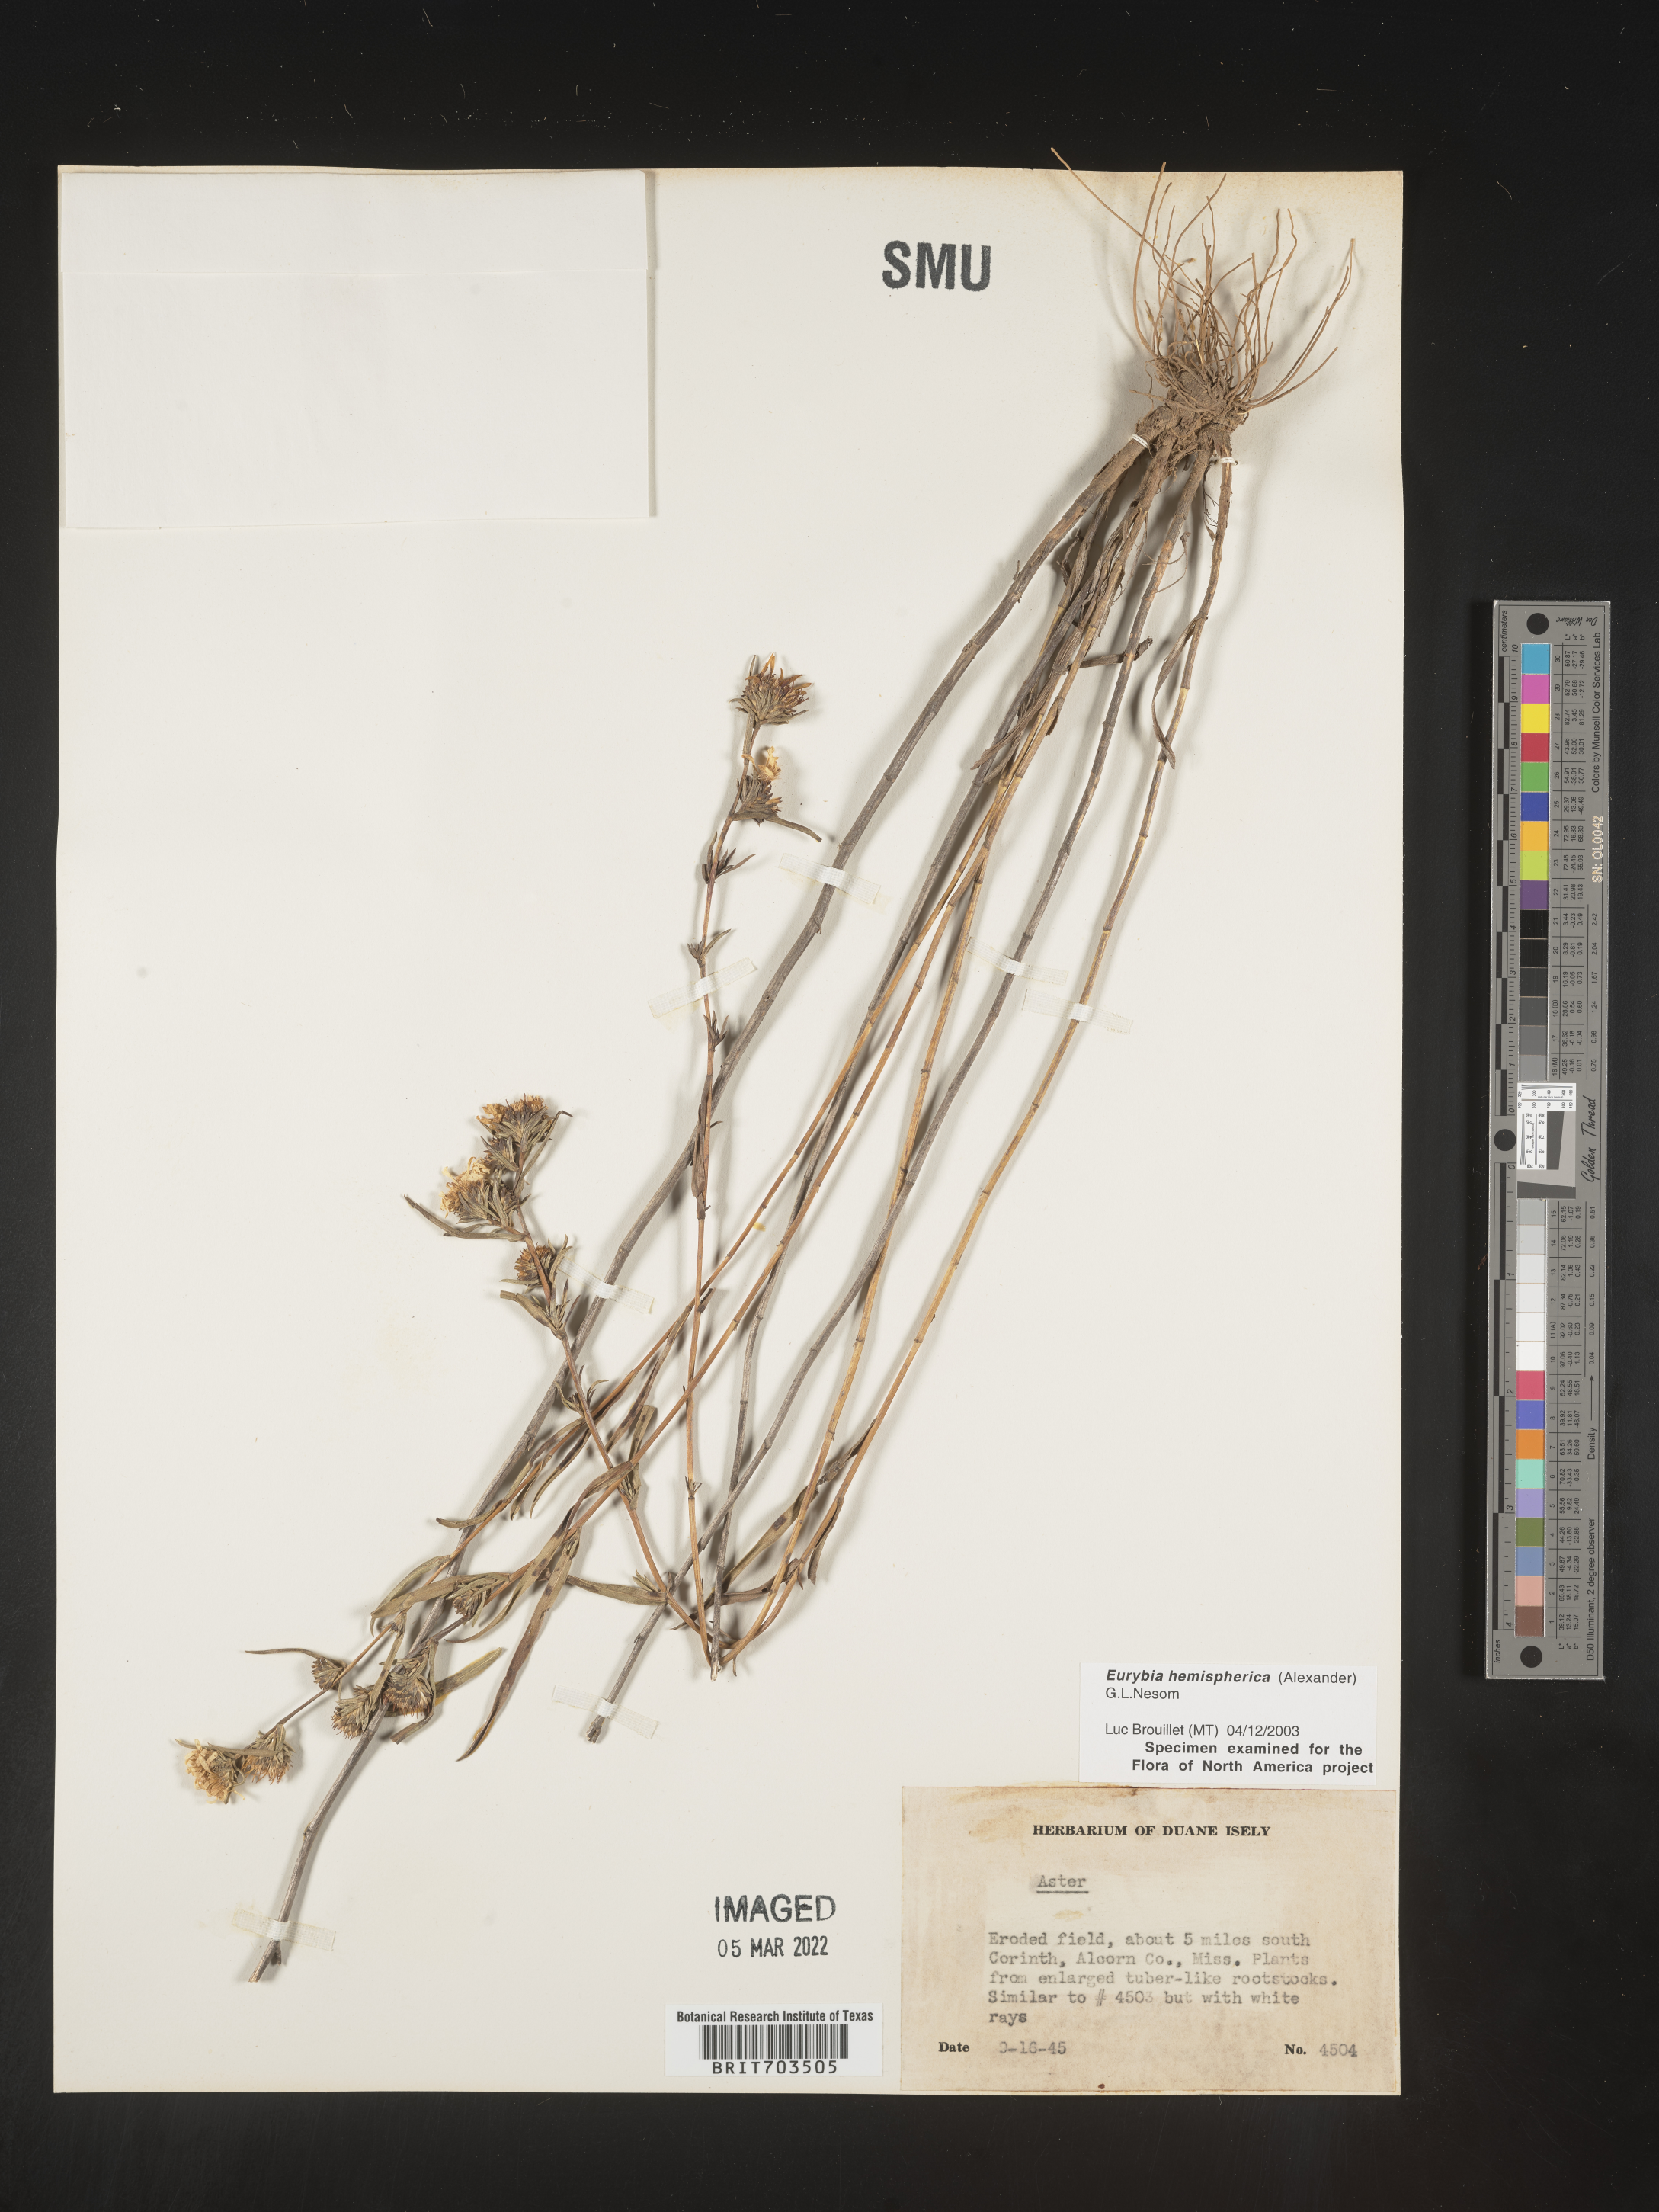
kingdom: Plantae
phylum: Tracheophyta
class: Magnoliopsida
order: Asterales
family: Asteraceae
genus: Eurybia
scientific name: Eurybia hemispherica
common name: Showy aster
